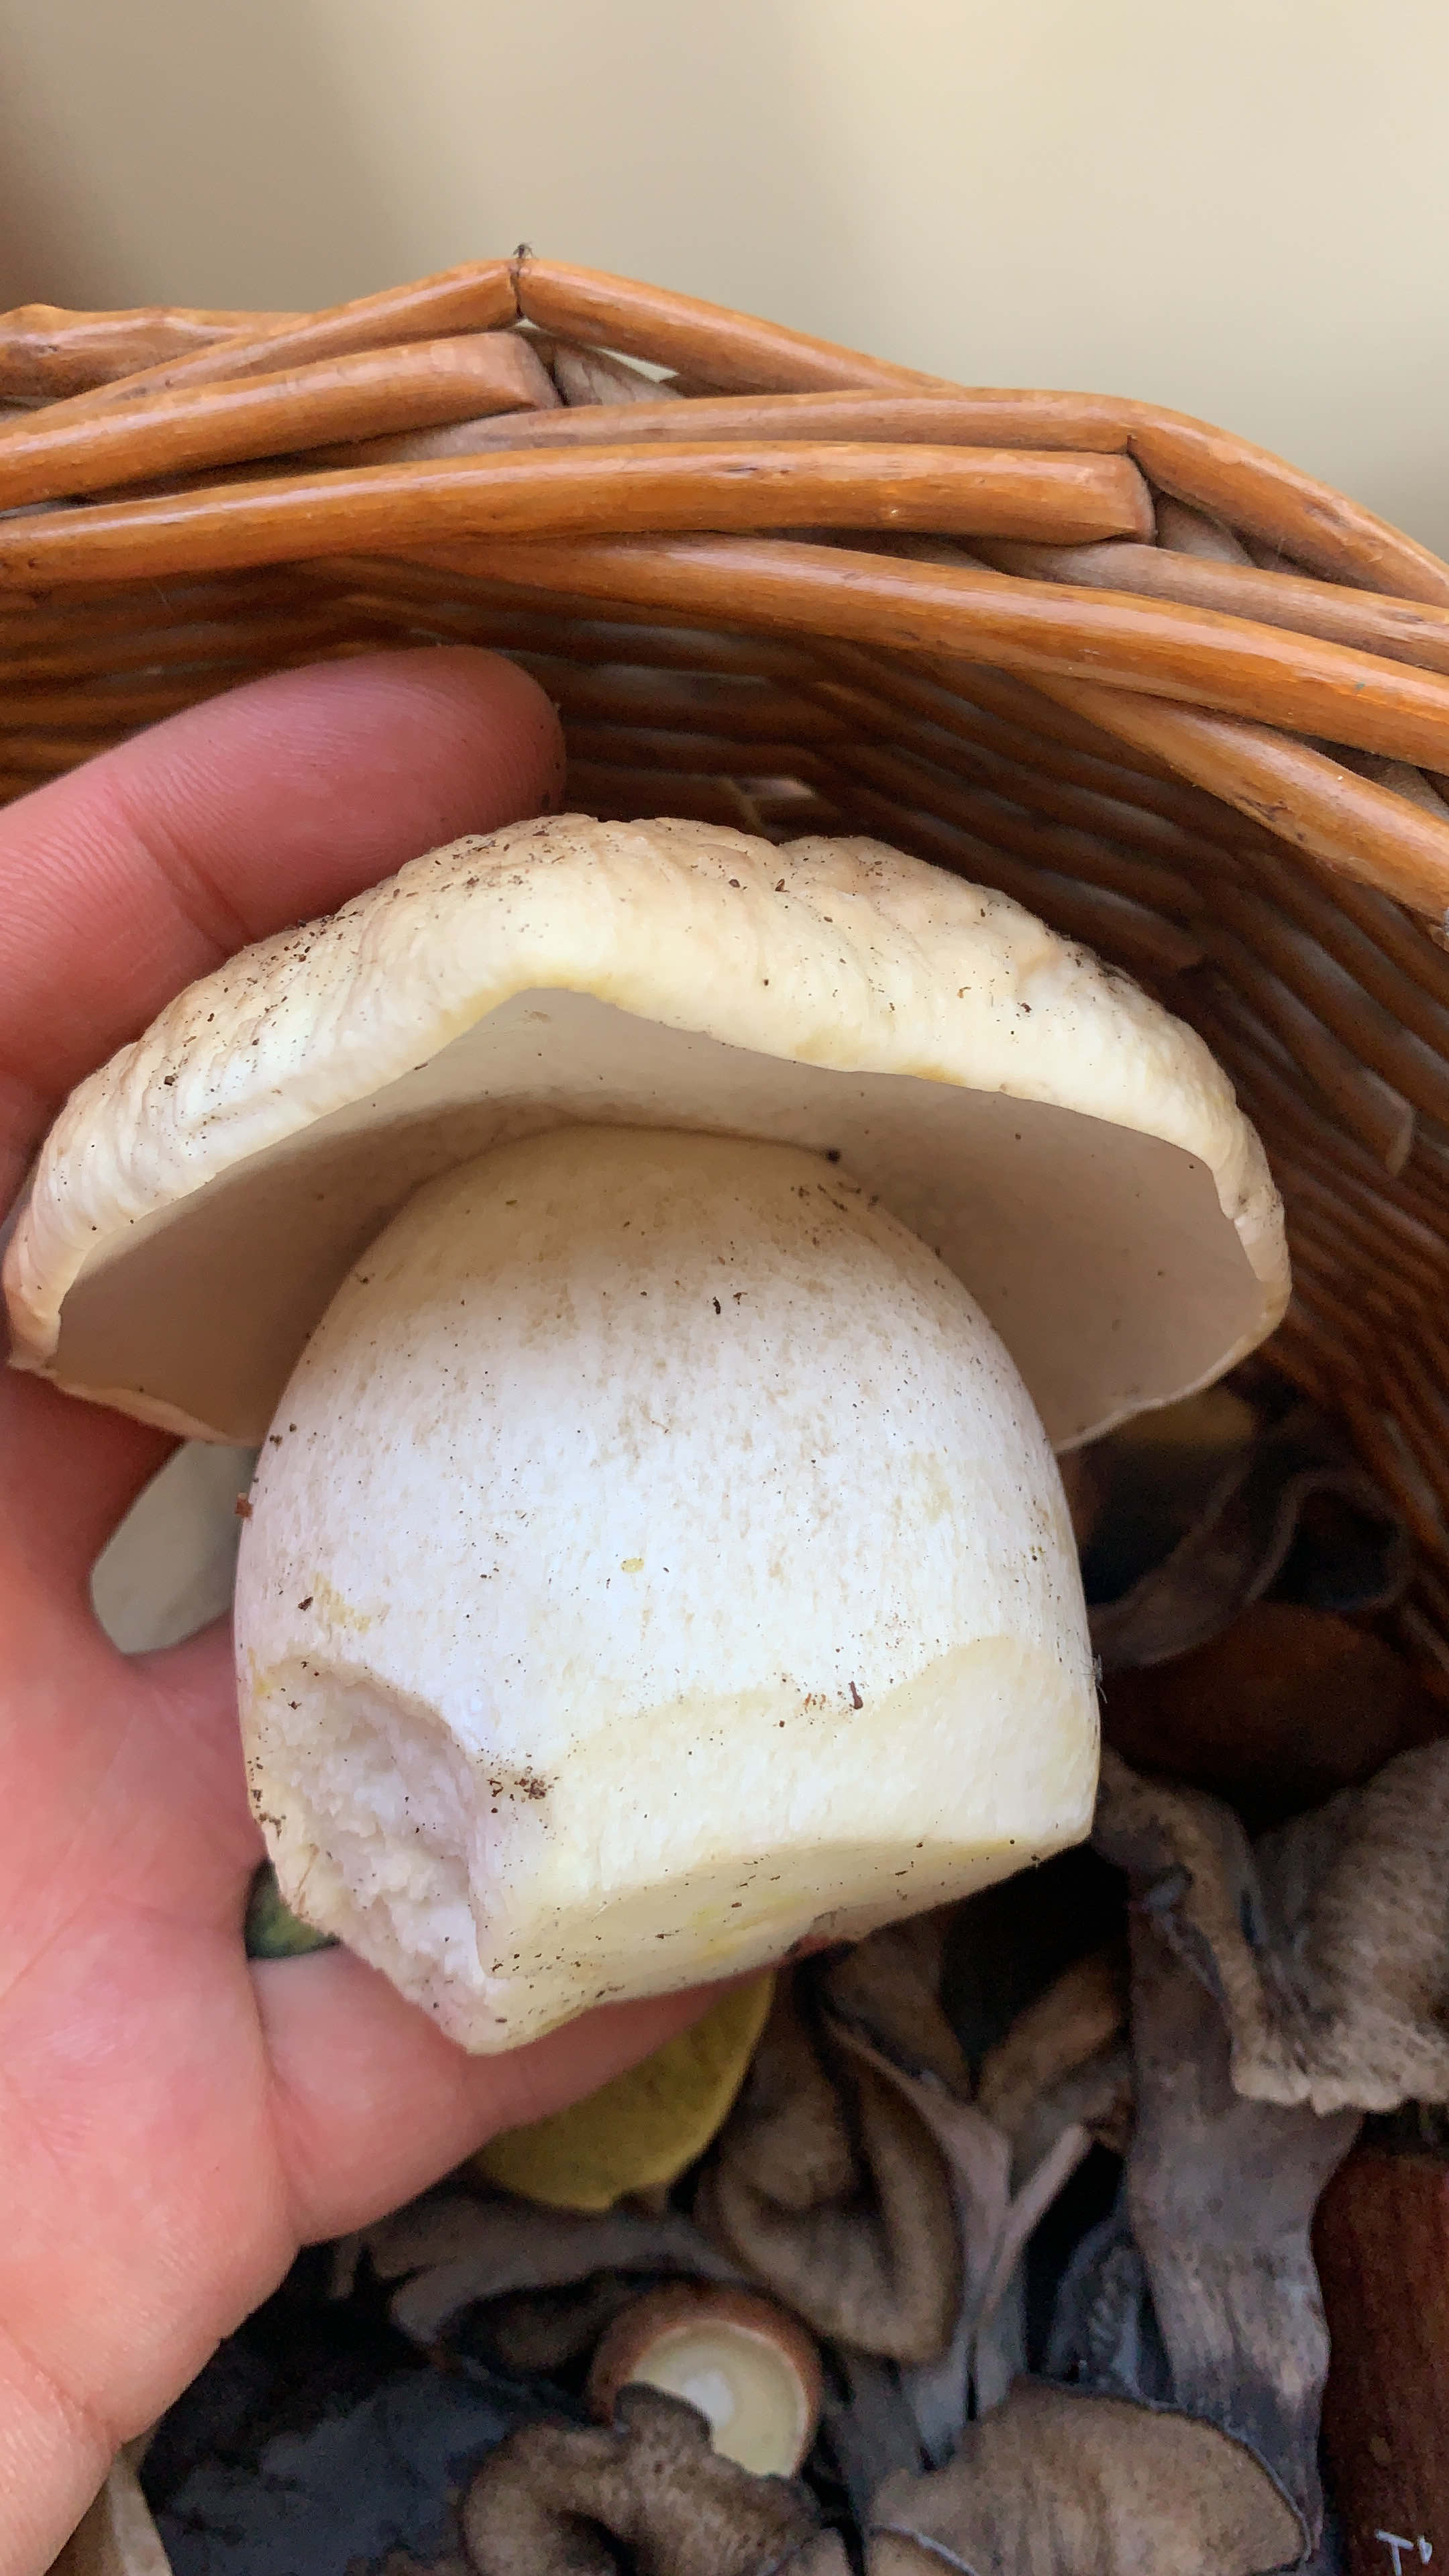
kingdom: Fungi
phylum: Basidiomycota
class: Agaricomycetes
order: Boletales
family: Boletaceae
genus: Boletus
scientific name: Boletus
